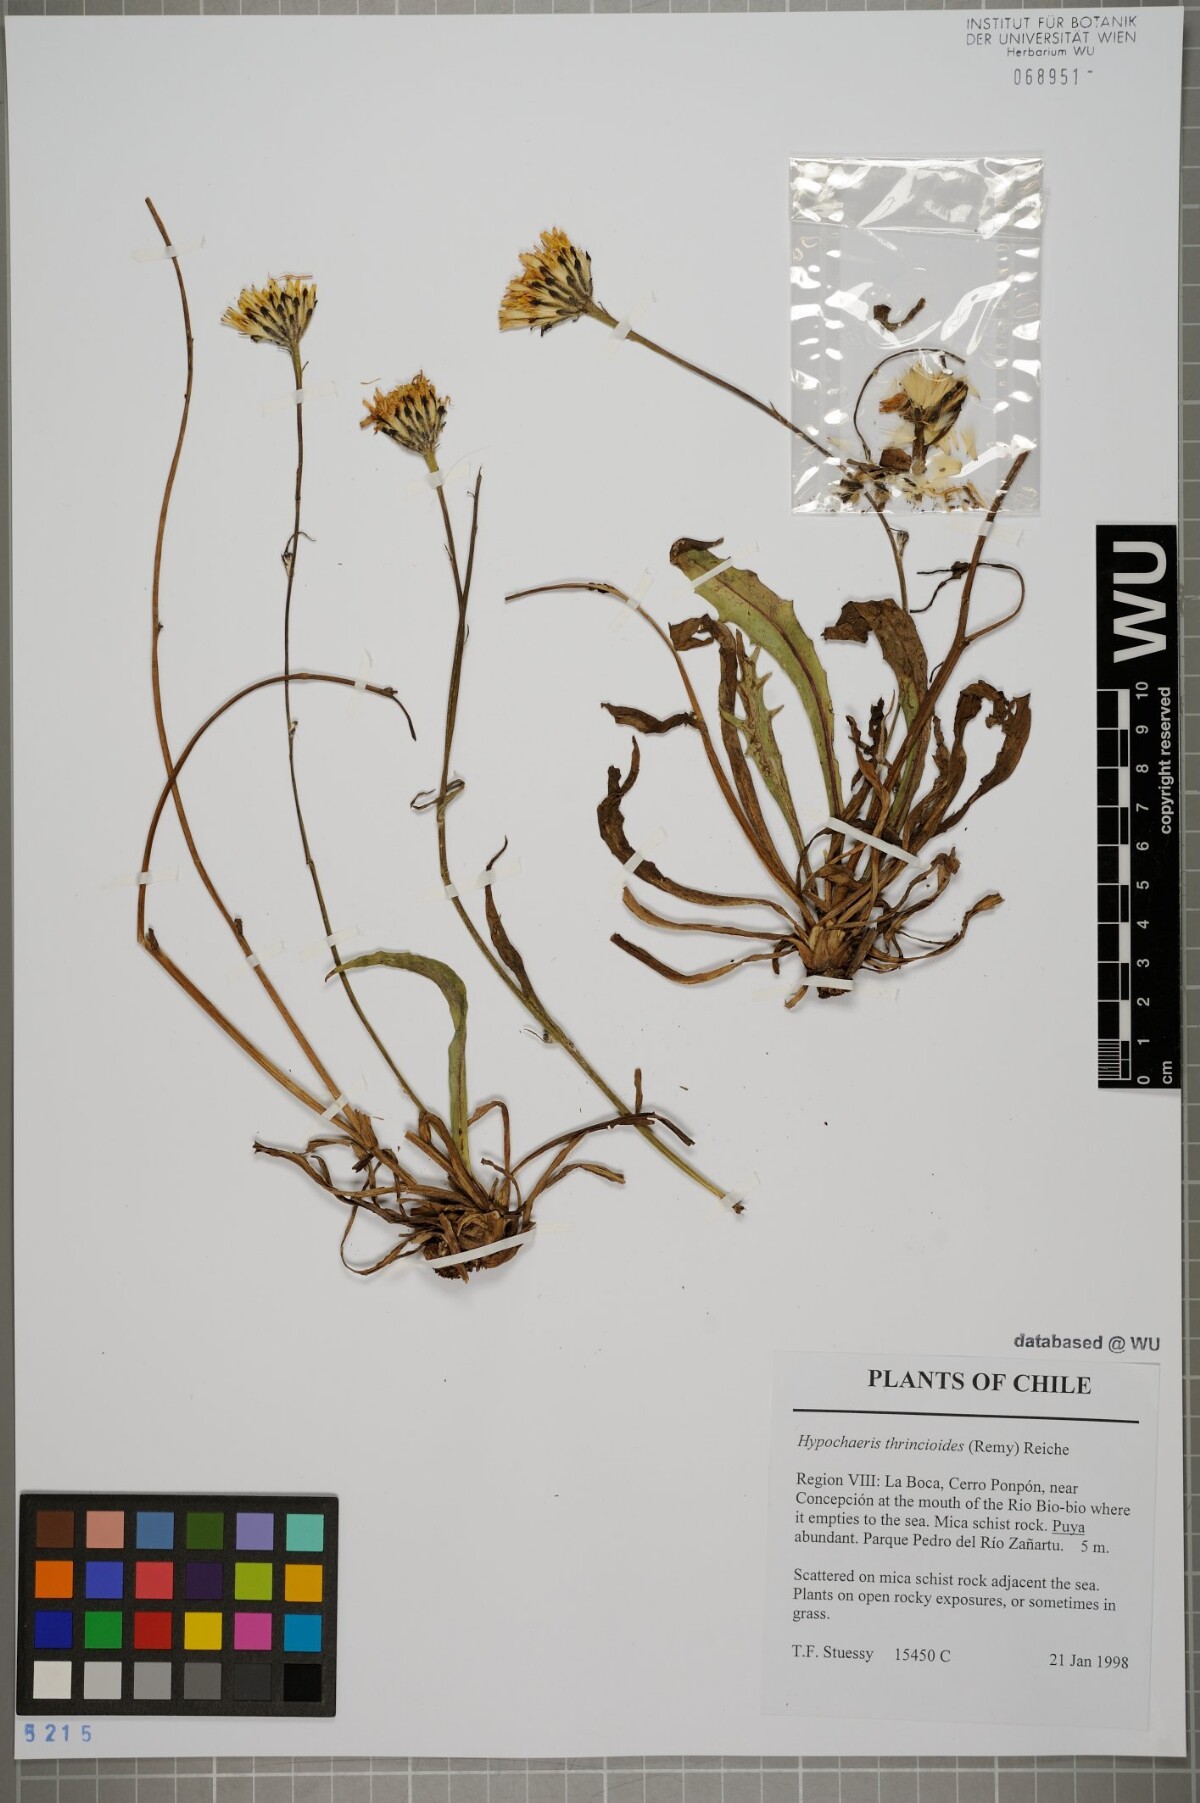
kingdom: Plantae
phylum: Tracheophyta
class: Magnoliopsida
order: Asterales
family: Asteraceae
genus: Hypochaeris
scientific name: Hypochaeris apargioides
